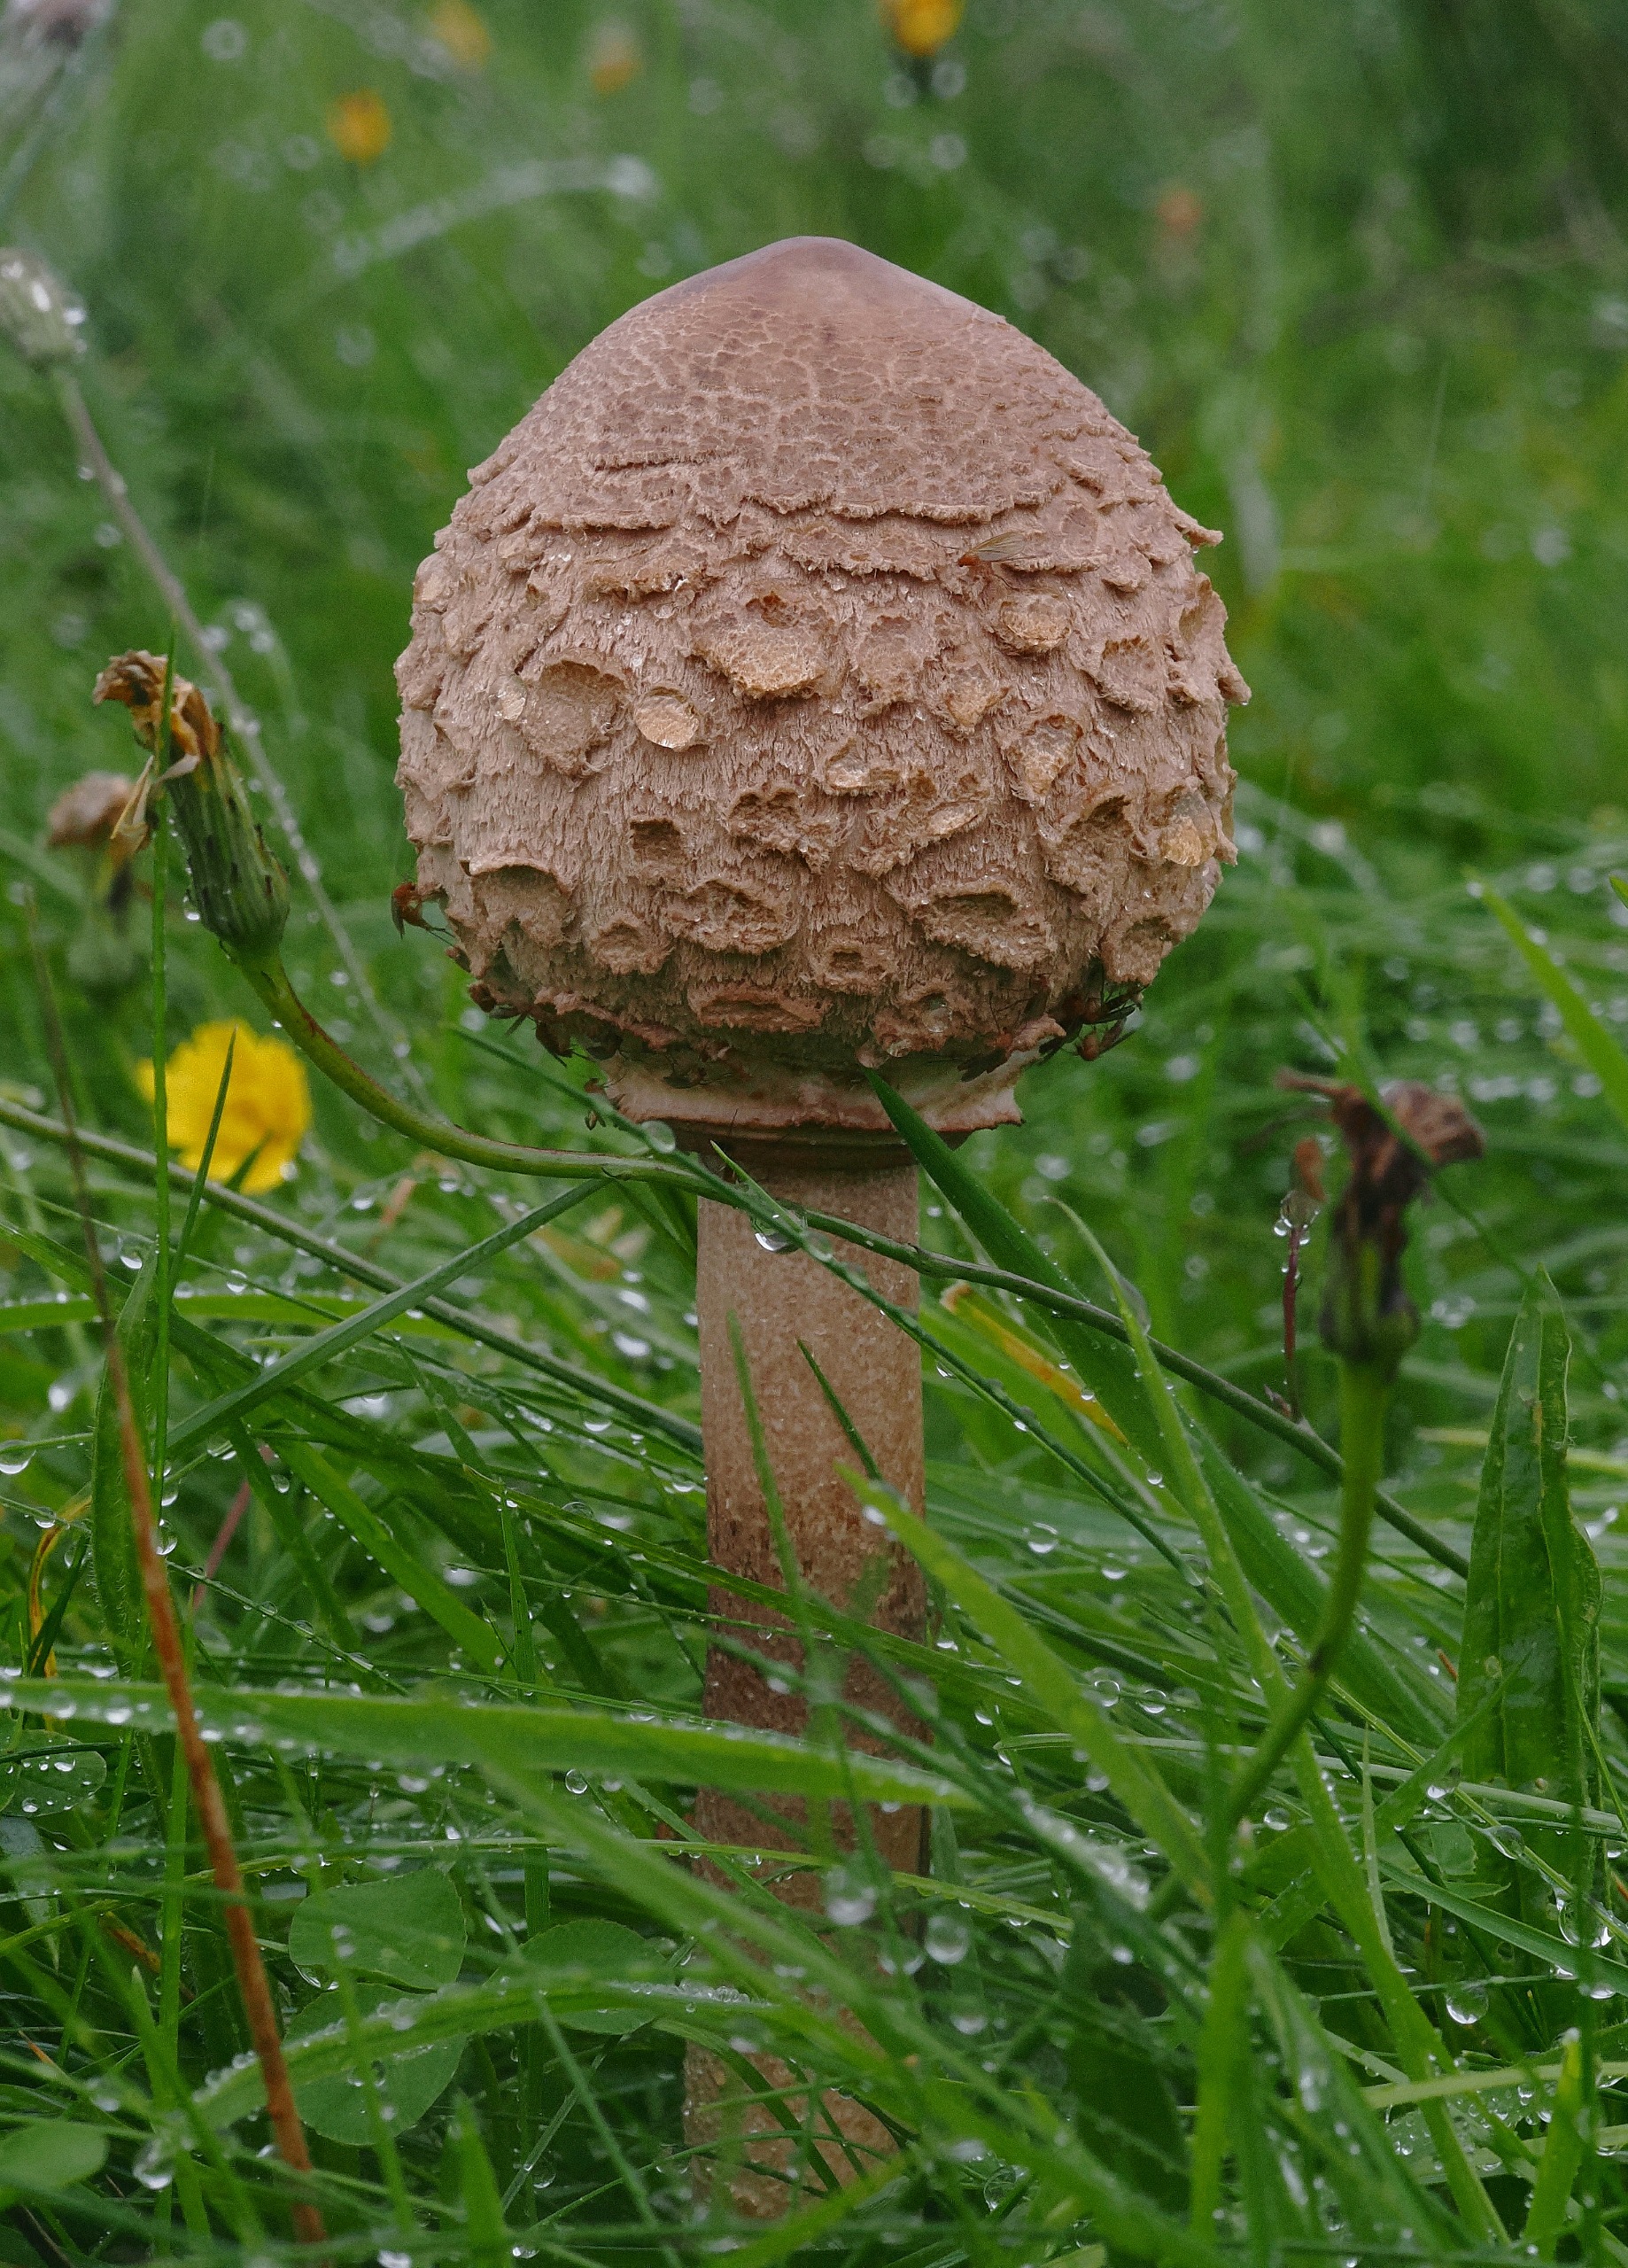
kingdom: Fungi
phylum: Basidiomycota
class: Agaricomycetes
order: Agaricales
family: Agaricaceae
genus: Macrolepiota
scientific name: Macrolepiota procera
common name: Stor kæmpeparasolhat
